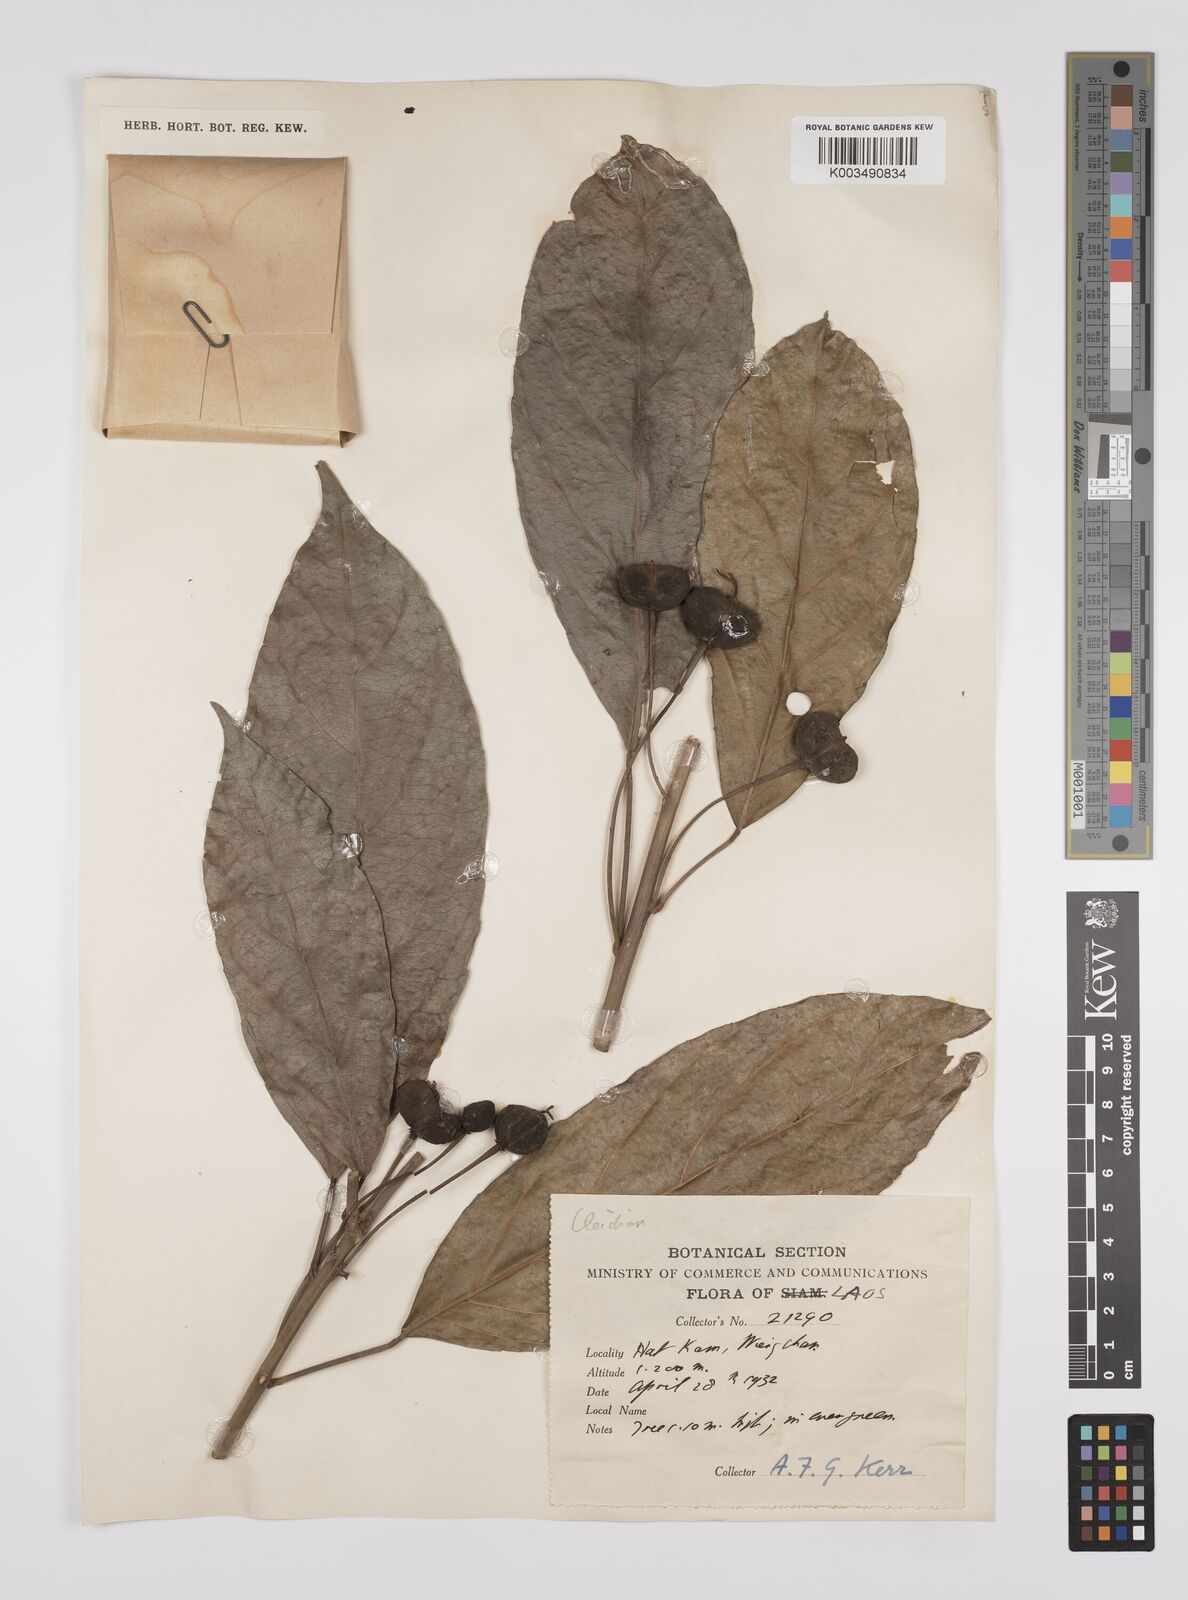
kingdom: Plantae
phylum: Tracheophyta
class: Magnoliopsida
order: Malpighiales
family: Euphorbiaceae
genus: Cleidion
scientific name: Cleidion
